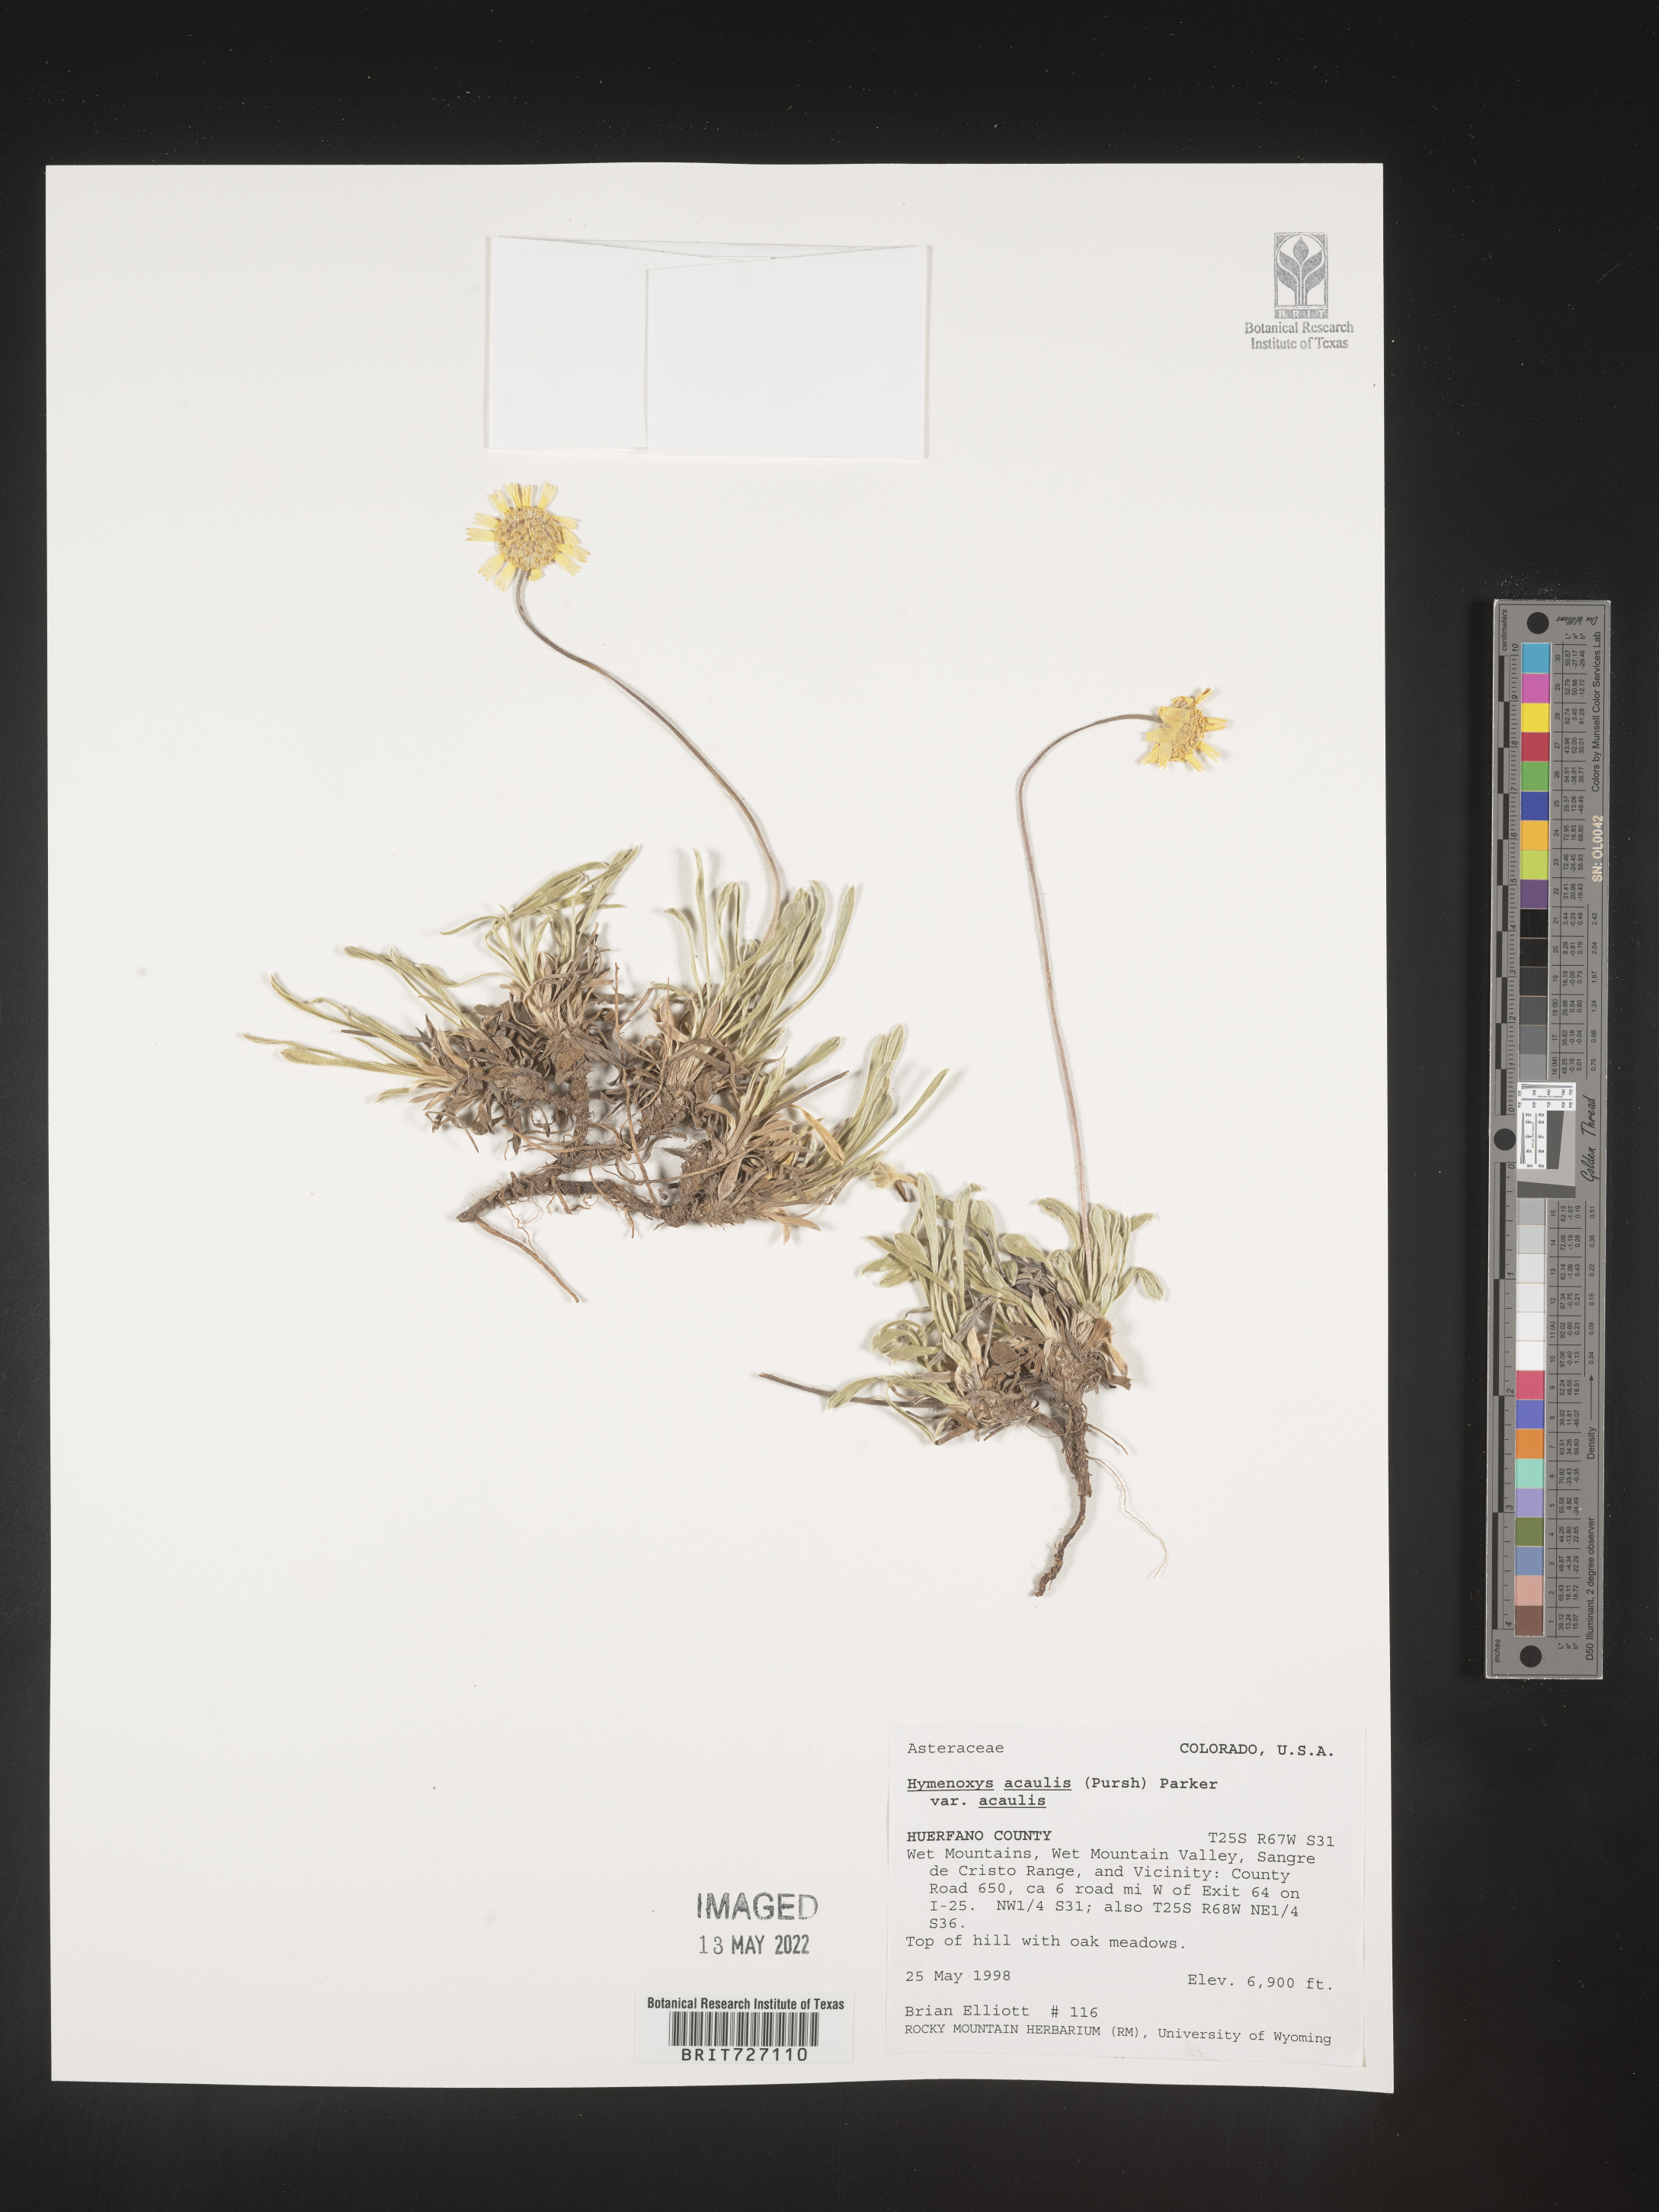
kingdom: Plantae
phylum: Tracheophyta
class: Magnoliopsida
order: Asterales
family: Asteraceae
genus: Tetraneuris
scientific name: Tetraneuris acaulis
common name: Butte marigold
